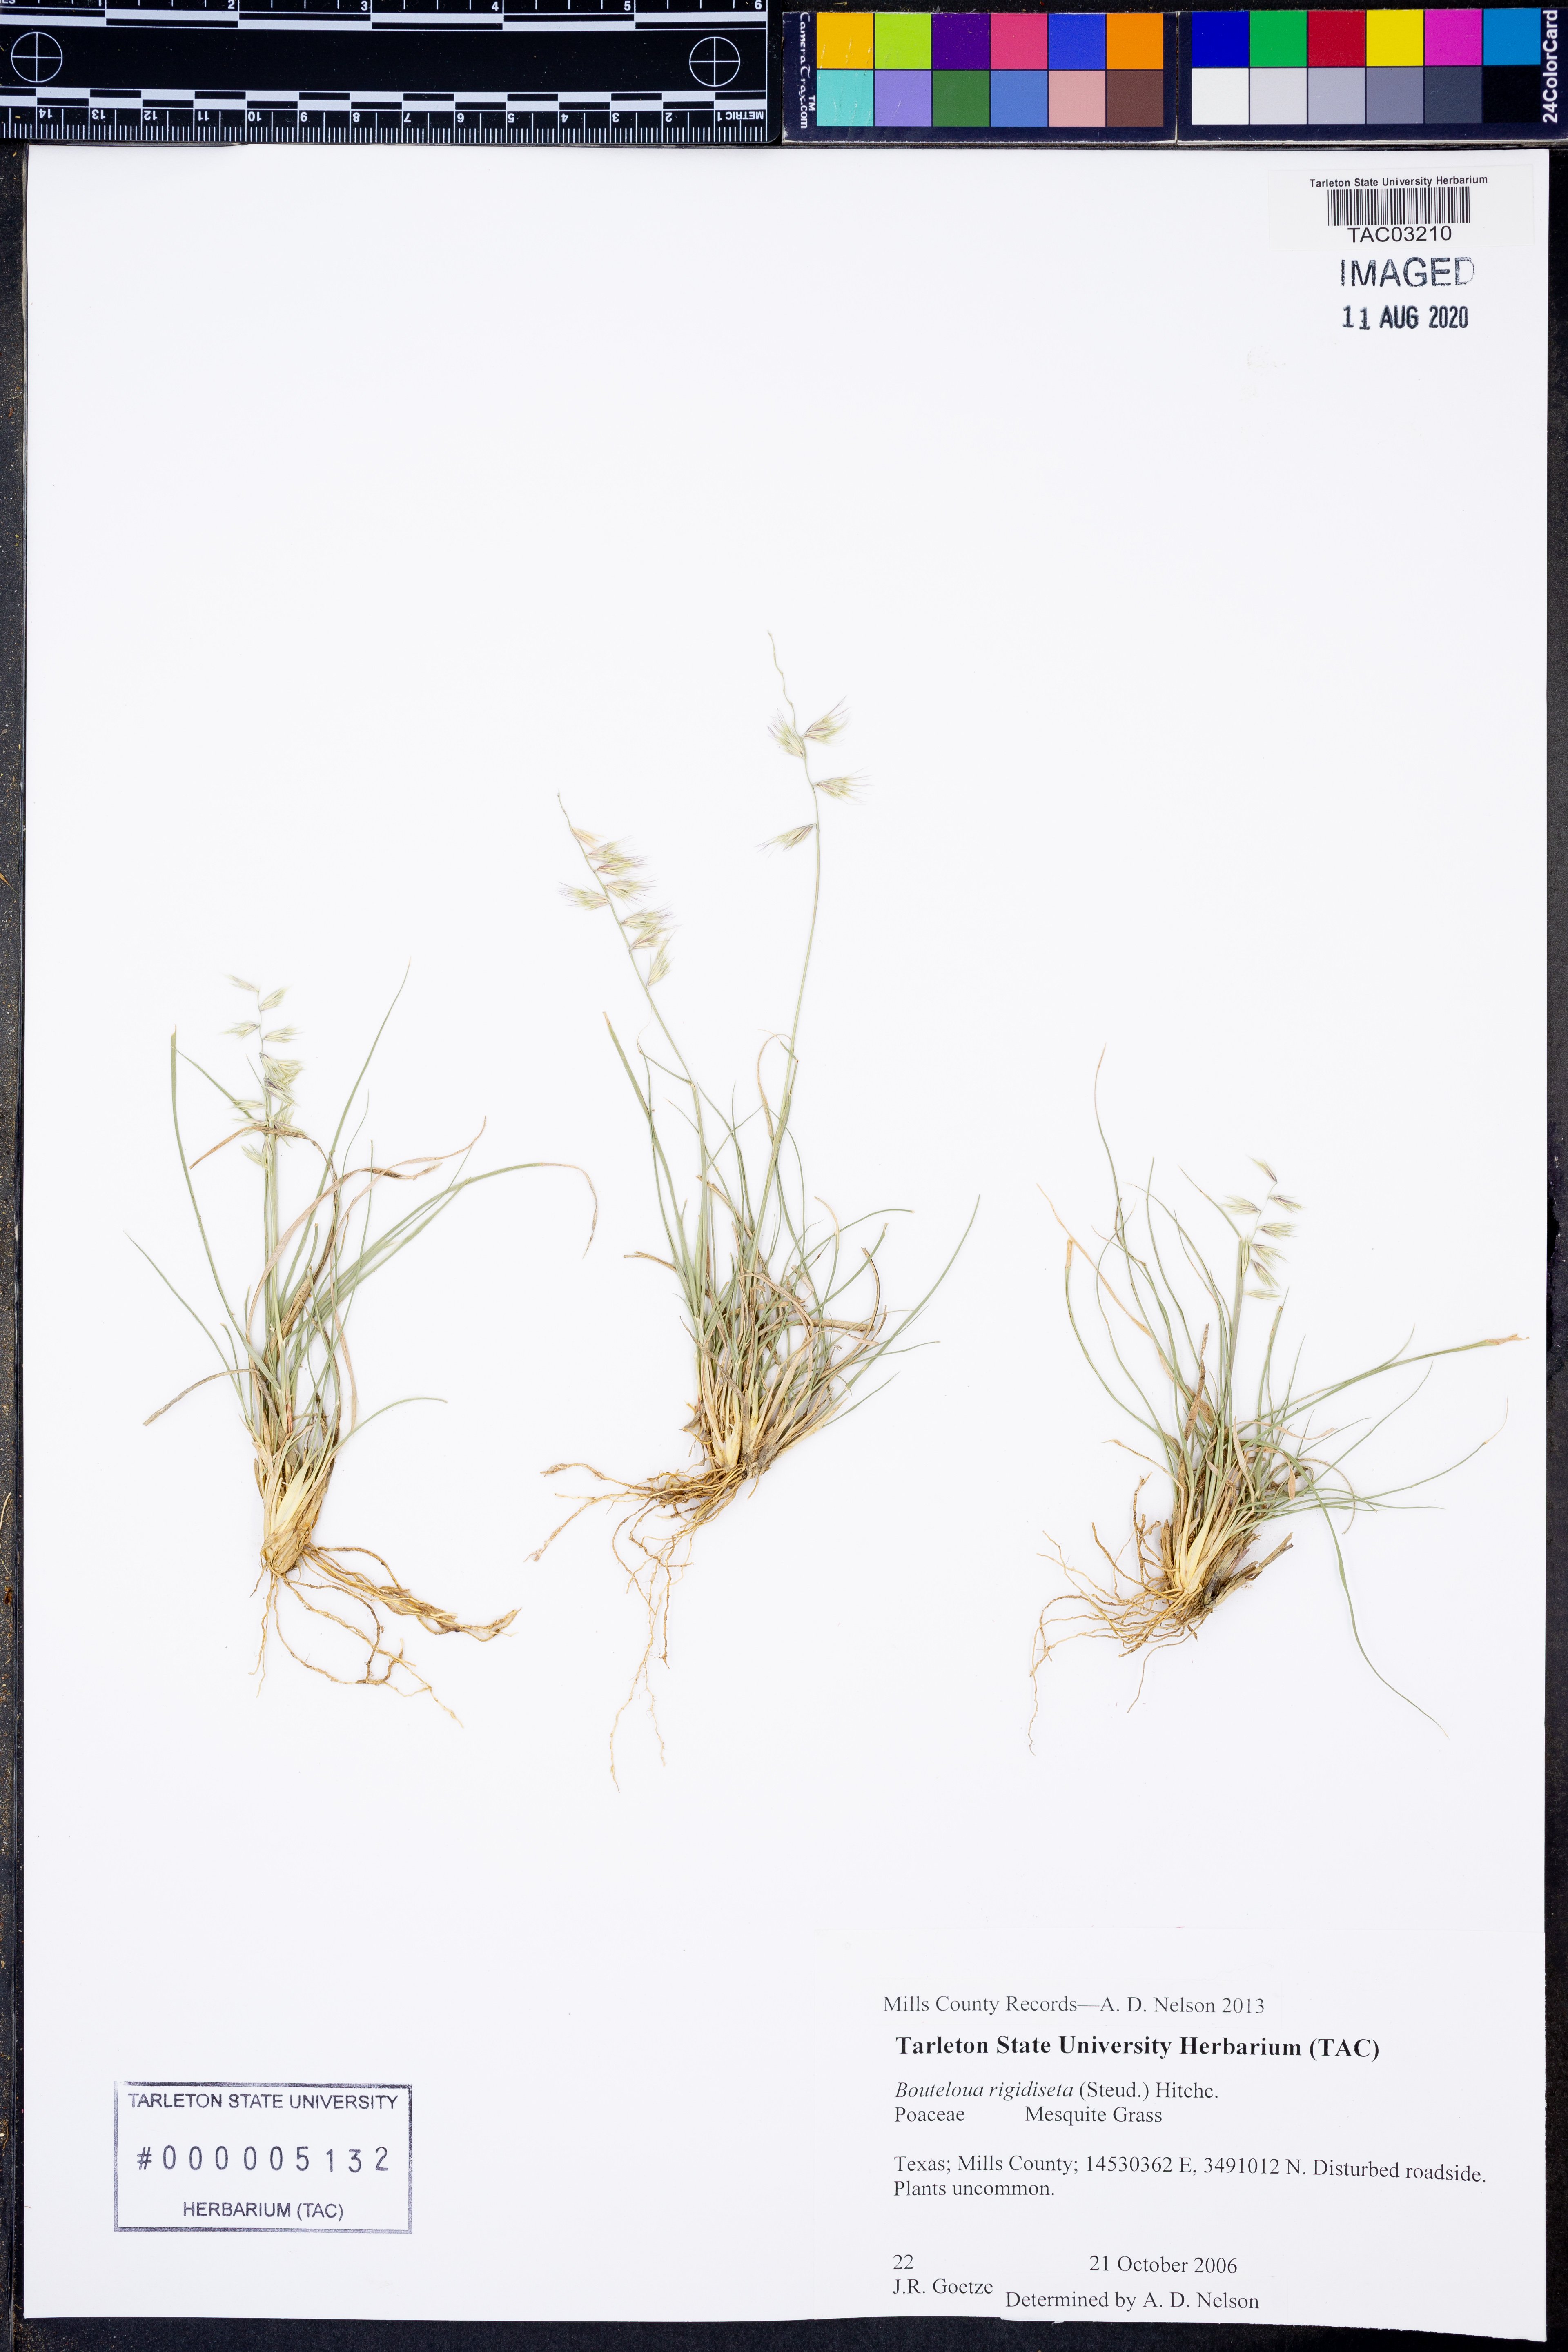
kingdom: Plantae
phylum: Tracheophyta
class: Liliopsida
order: Poales
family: Poaceae
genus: Bouteloua
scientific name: Bouteloua rigidiseta
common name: Texas grama
